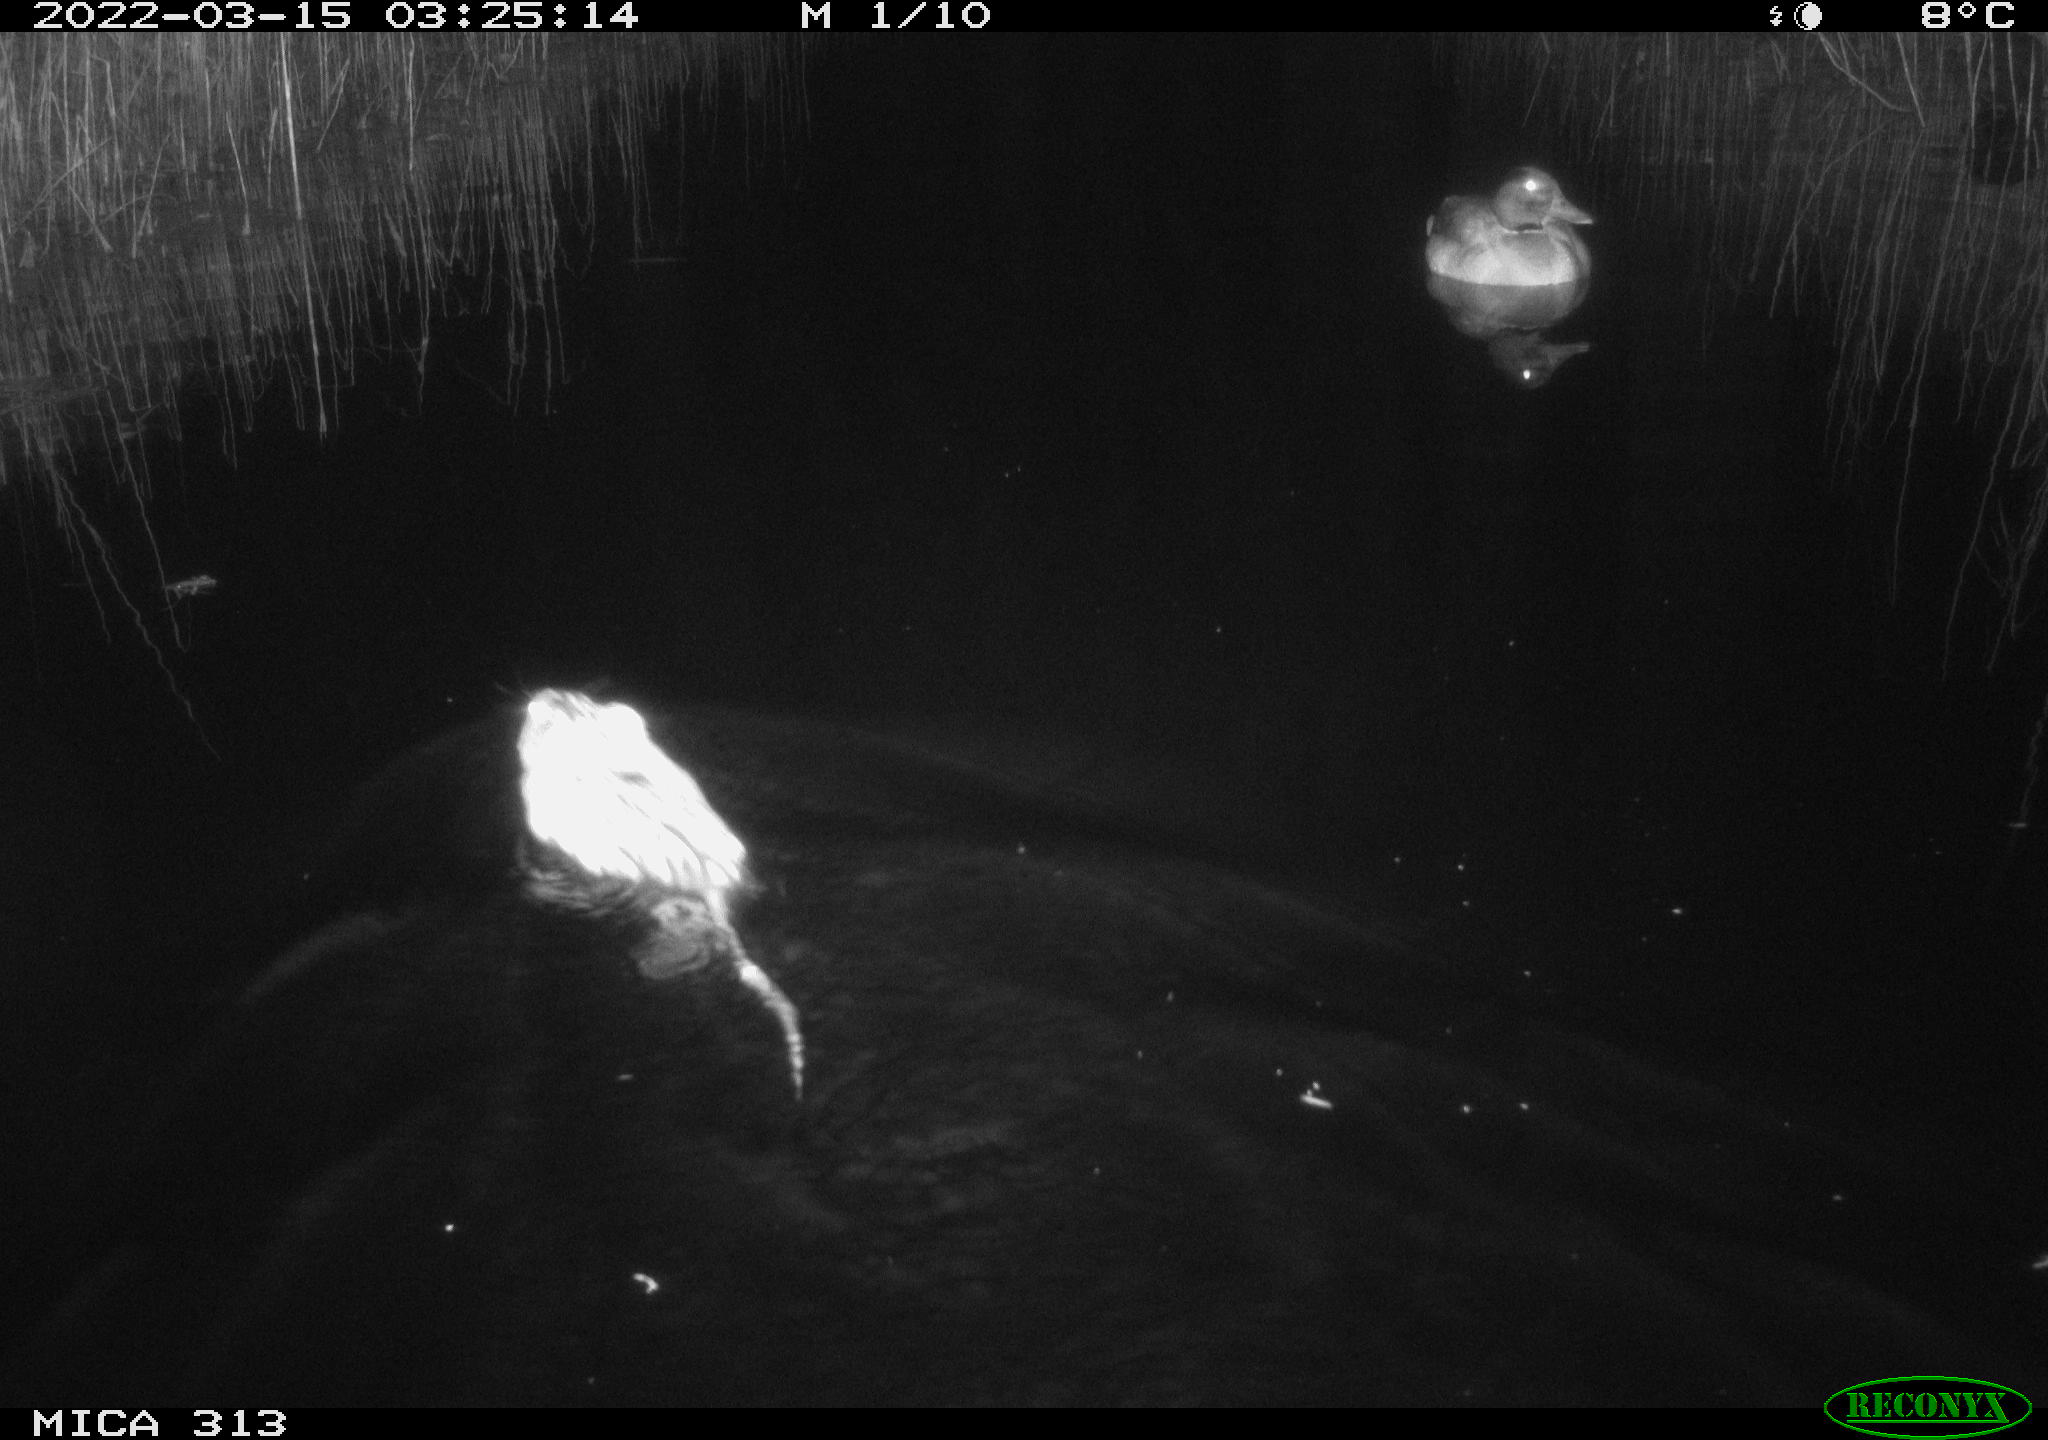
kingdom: Animalia
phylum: Chordata
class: Aves
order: Anseriformes
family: Anatidae
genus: Anas
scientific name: Anas platyrhynchos
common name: Mallard
